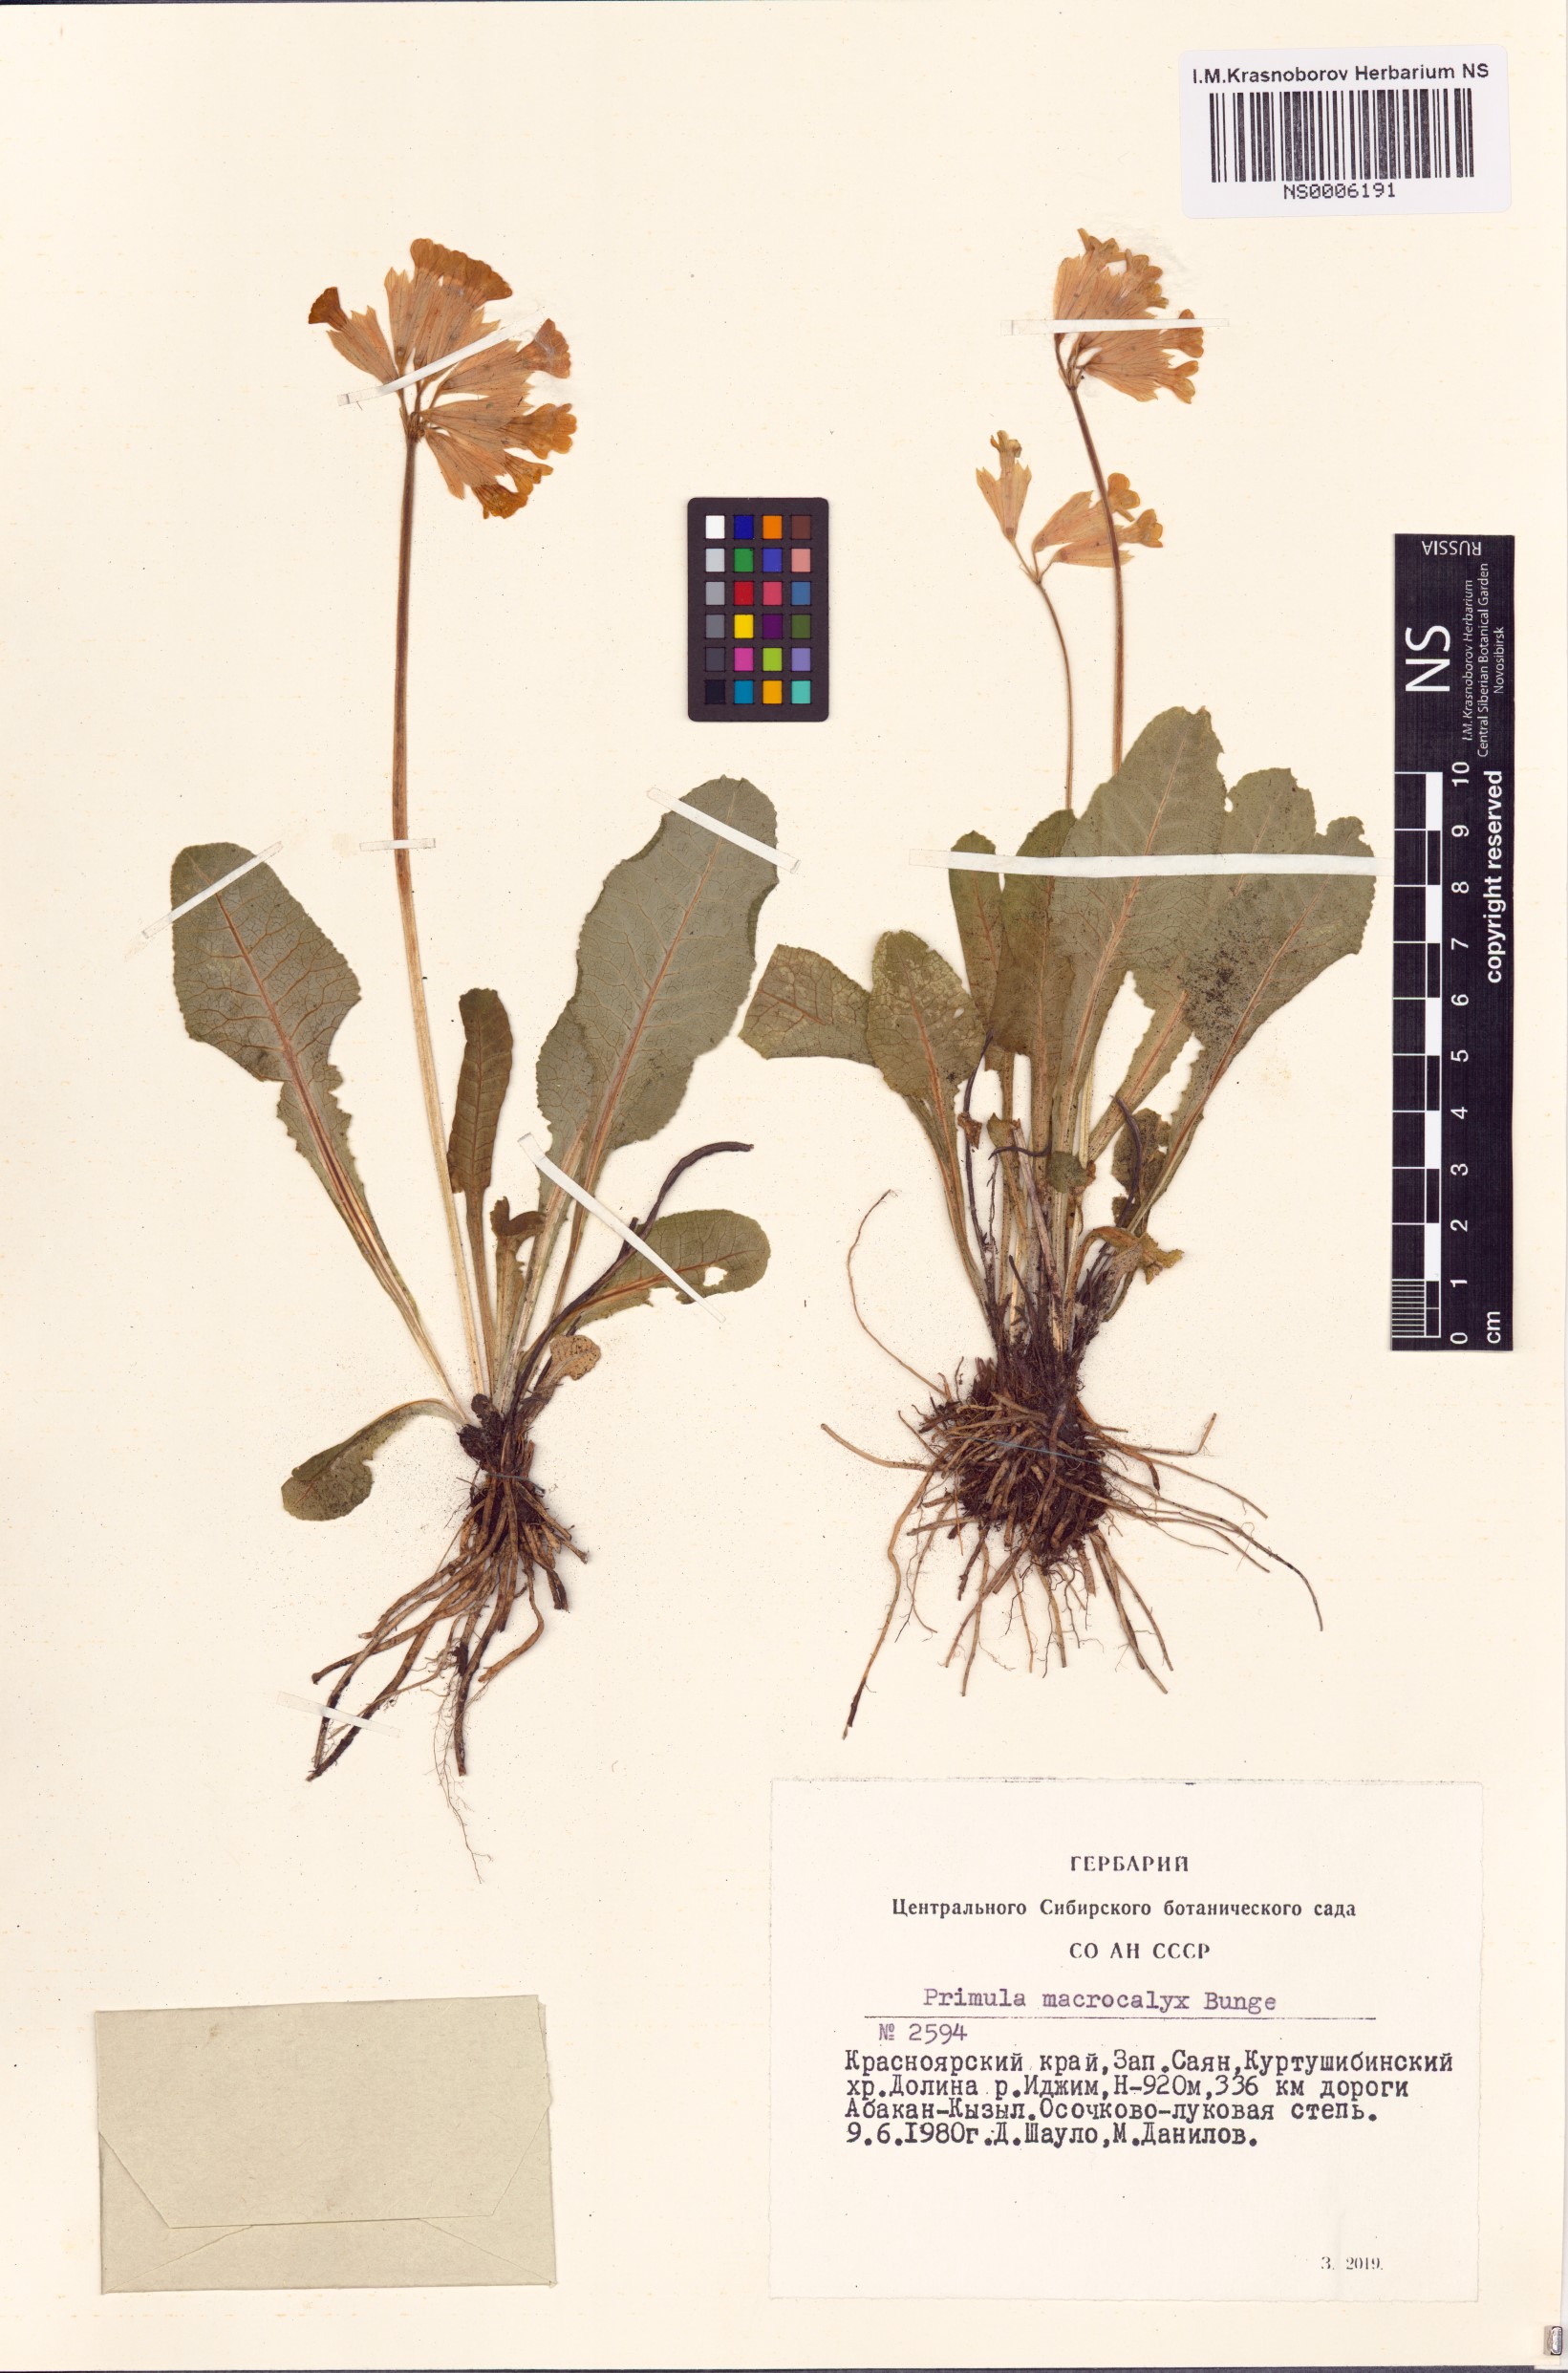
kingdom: Plantae
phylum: Tracheophyta
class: Magnoliopsida
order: Ericales
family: Primulaceae
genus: Primula
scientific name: Primula veris
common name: Cowslip
